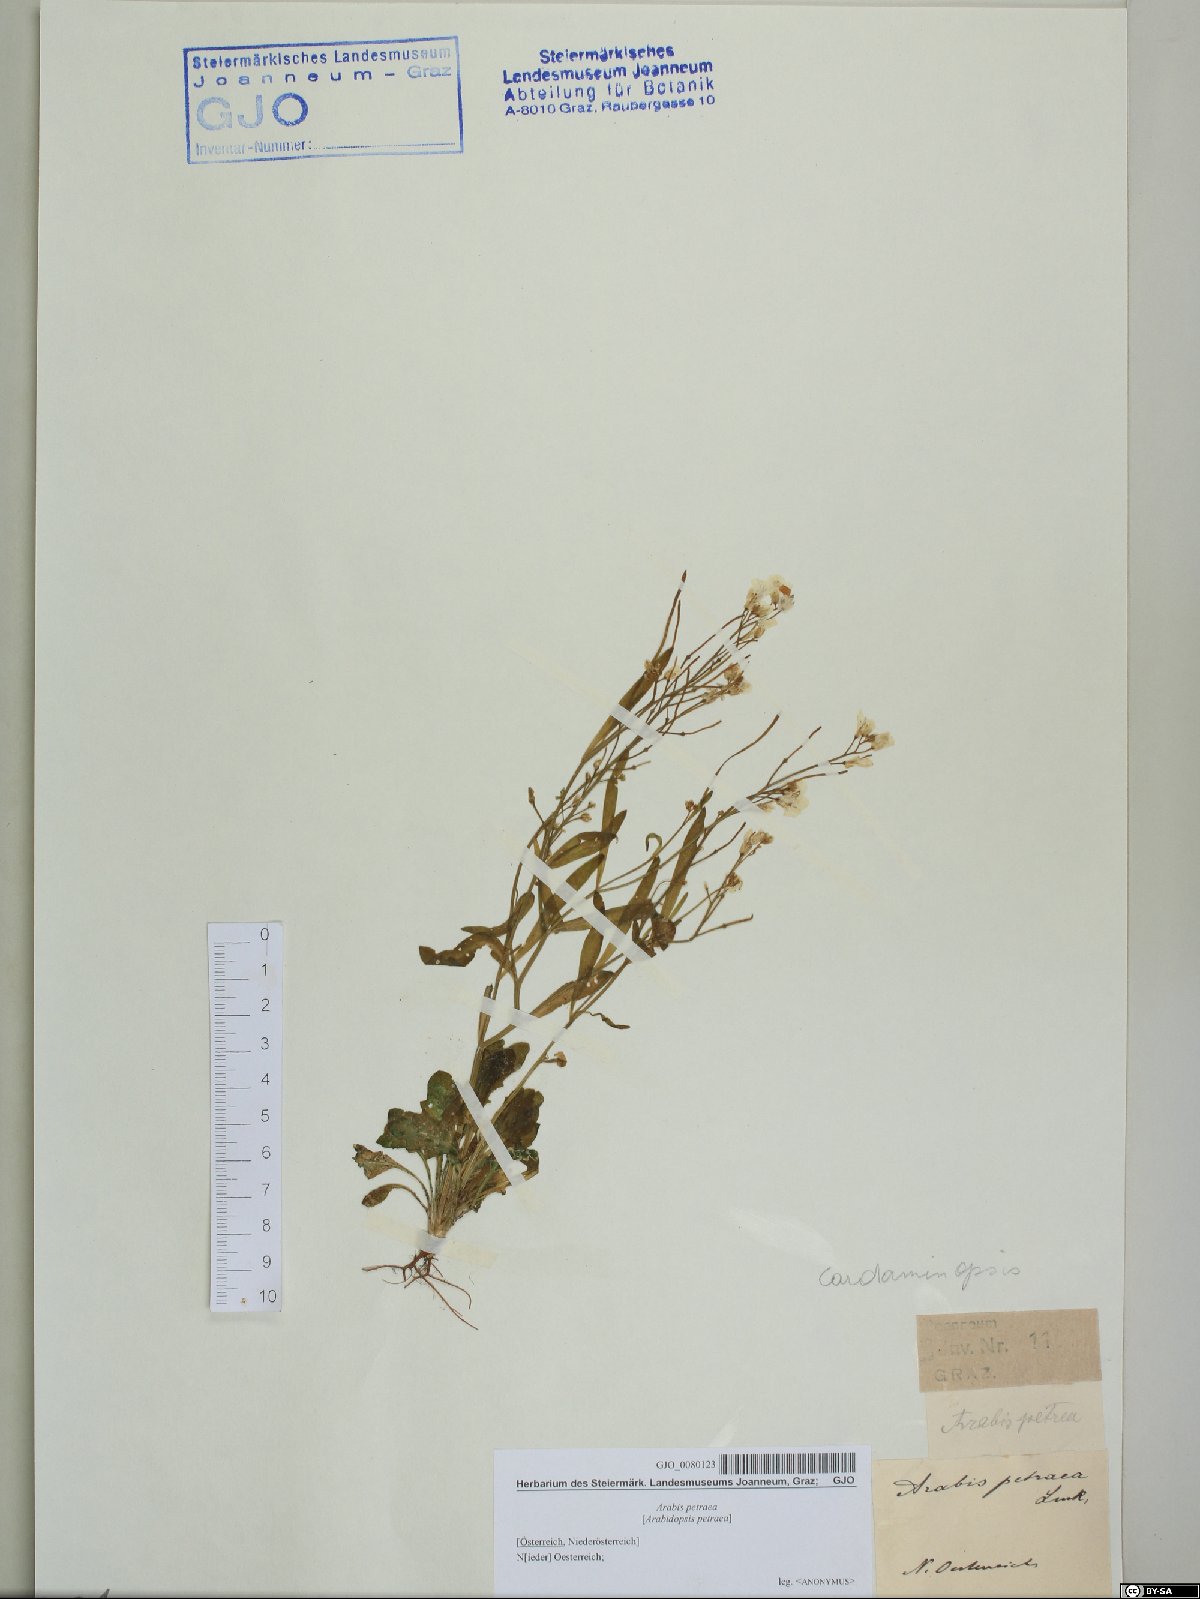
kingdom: Plantae
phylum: Tracheophyta
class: Magnoliopsida
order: Brassicales
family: Brassicaceae
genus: Arabidopsis
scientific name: Arabidopsis lyrata
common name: Lyrate rockcress
